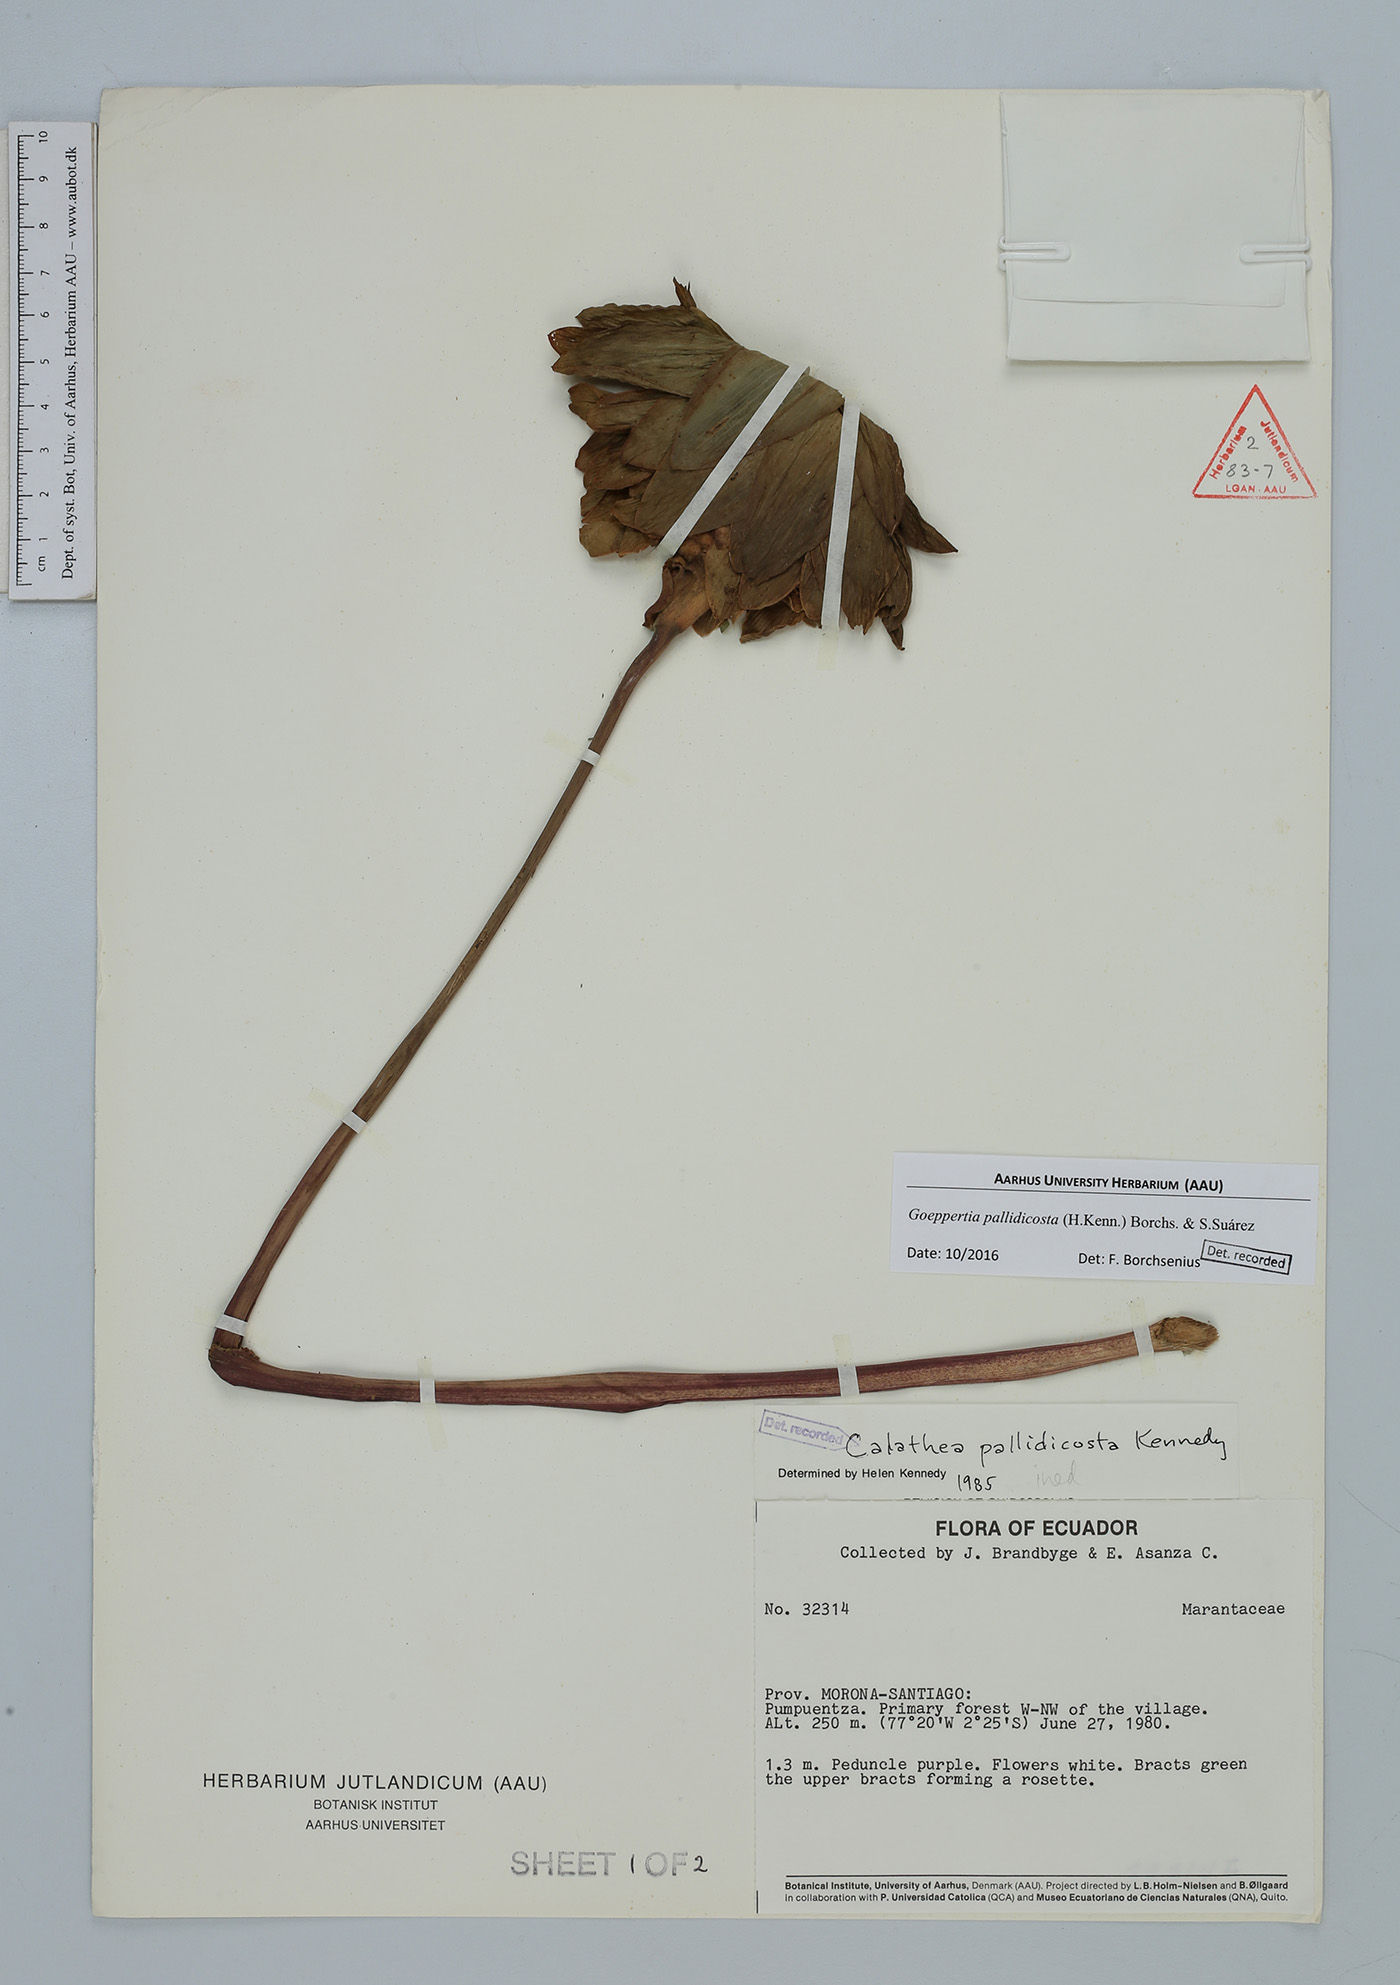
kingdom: Plantae
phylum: Tracheophyta
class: Liliopsida
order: Zingiberales
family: Marantaceae
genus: Goeppertia
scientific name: Goeppertia pallidicosta
